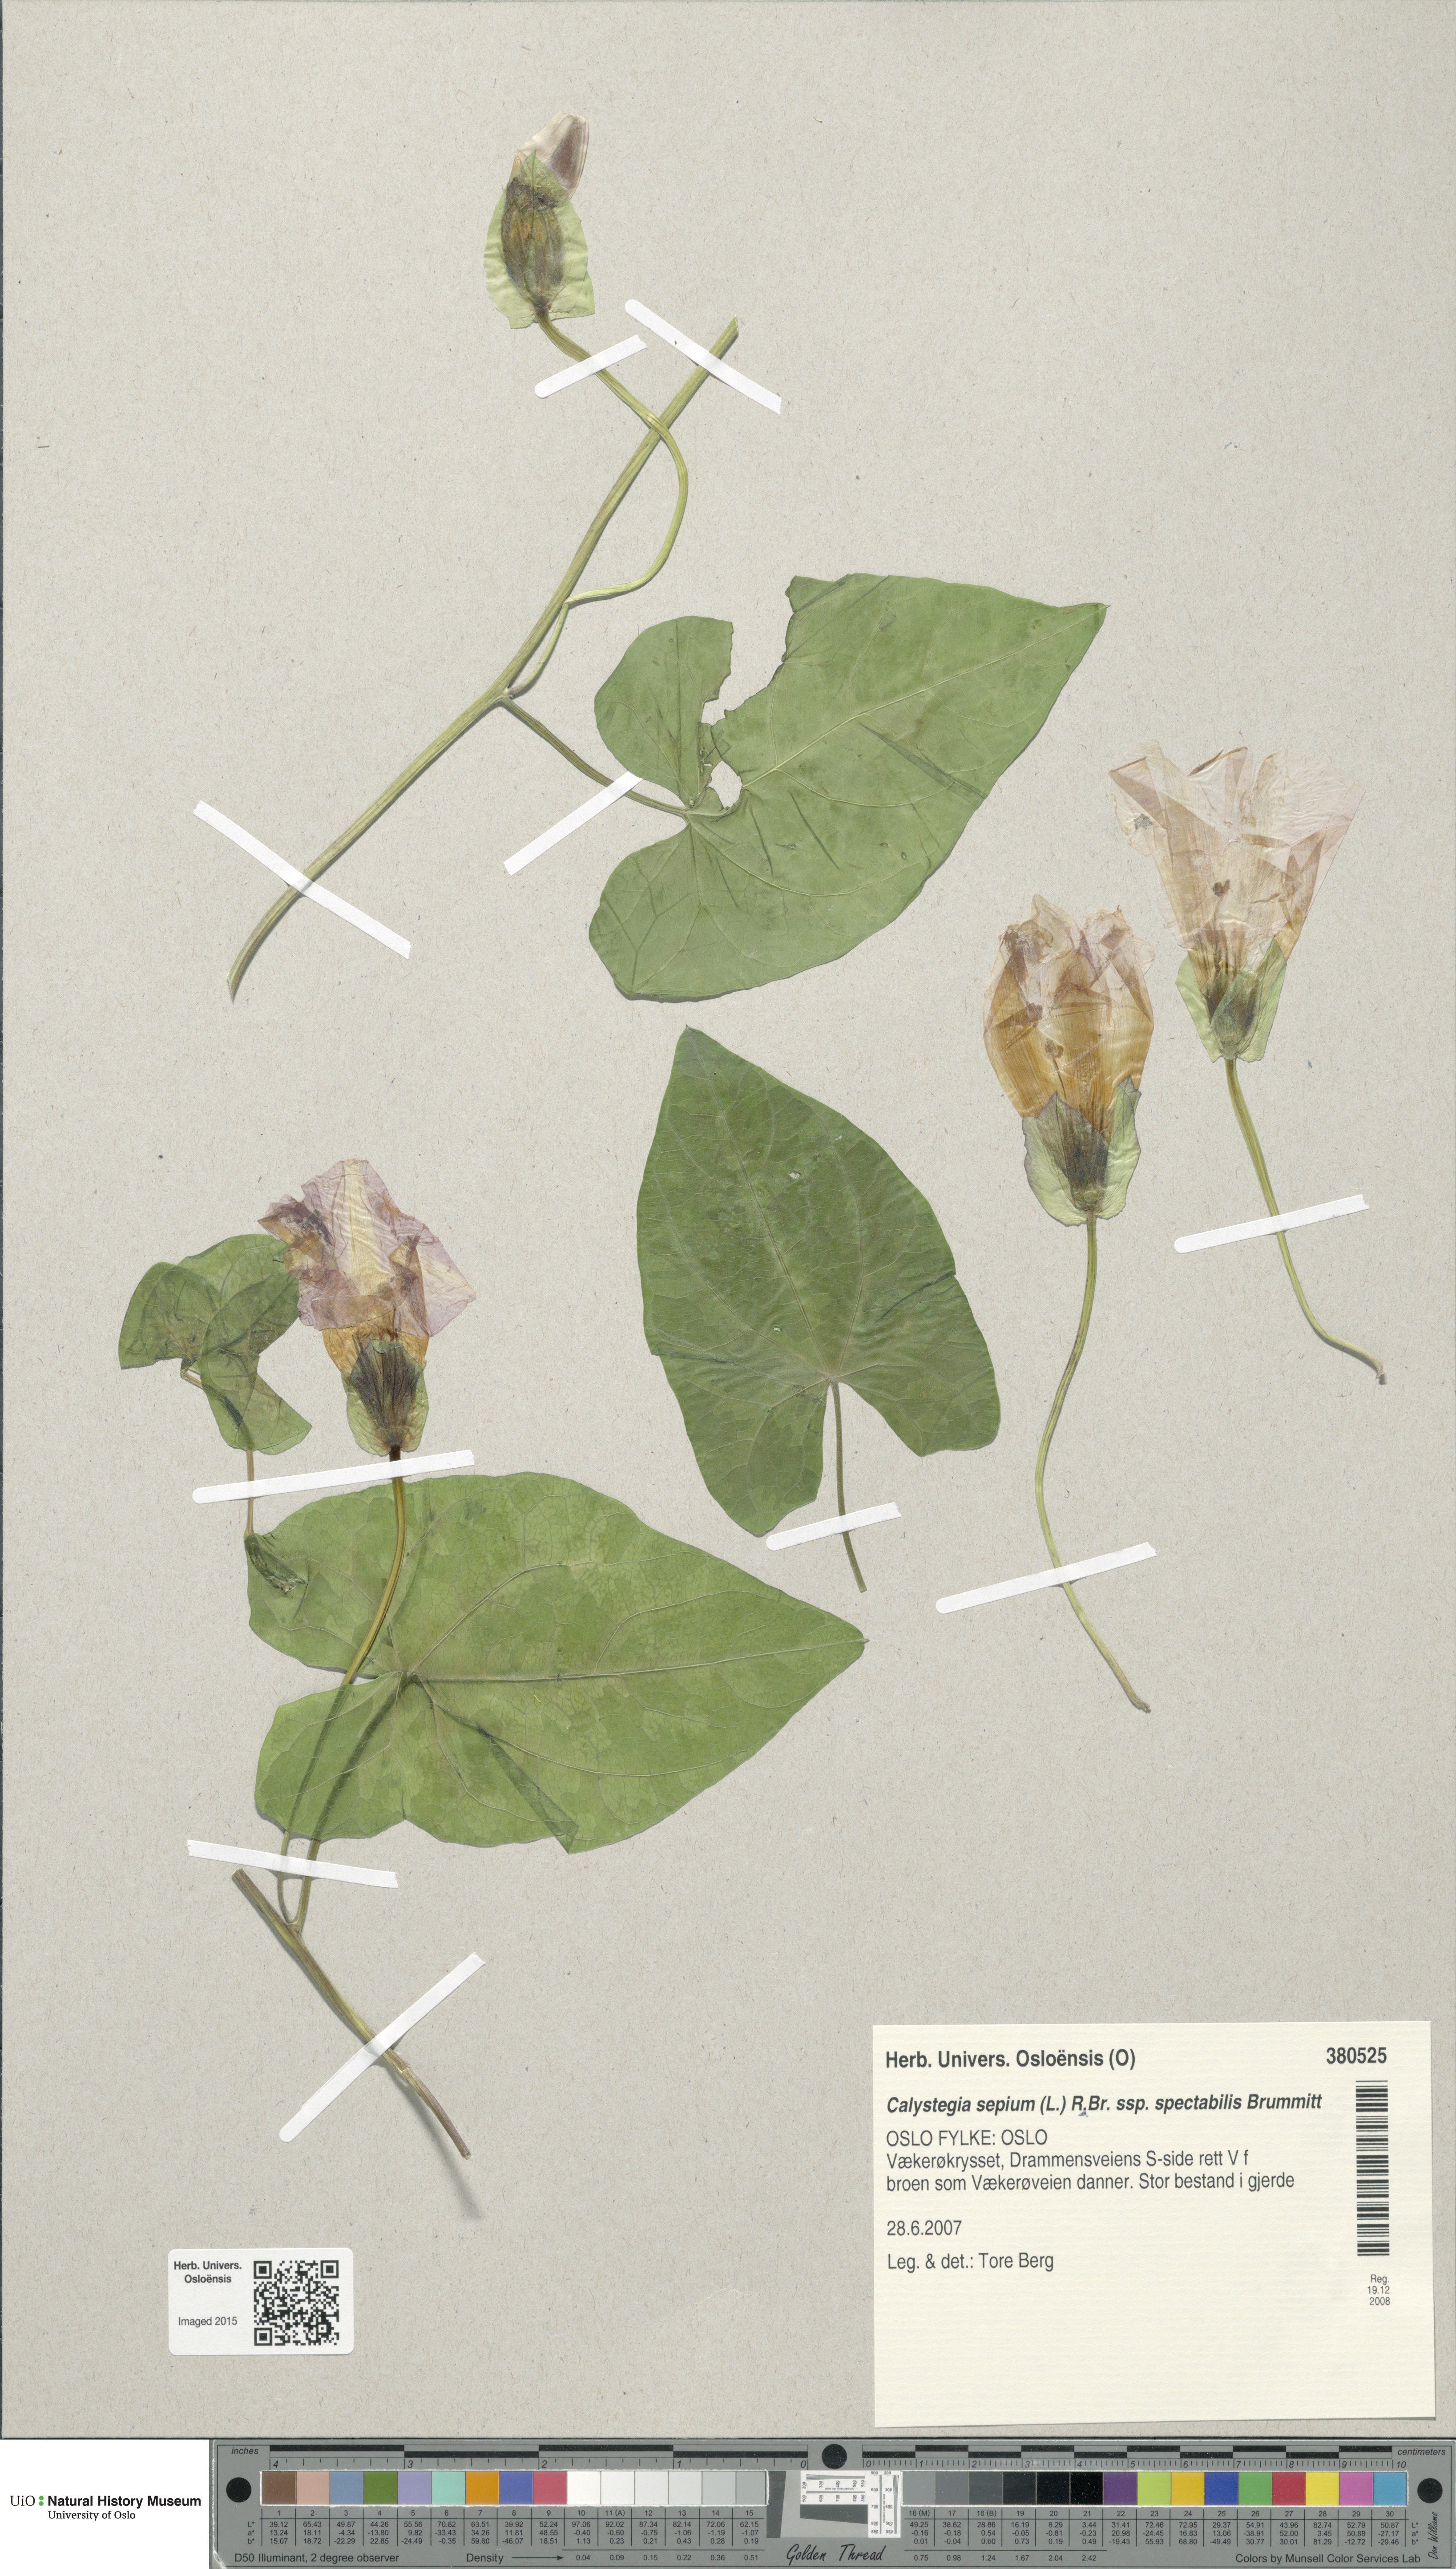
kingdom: Plantae
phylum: Tracheophyta
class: Magnoliopsida
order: Solanales
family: Convolvulaceae
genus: Calystegia
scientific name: Calystegia sepium
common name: Hedge bindweed
